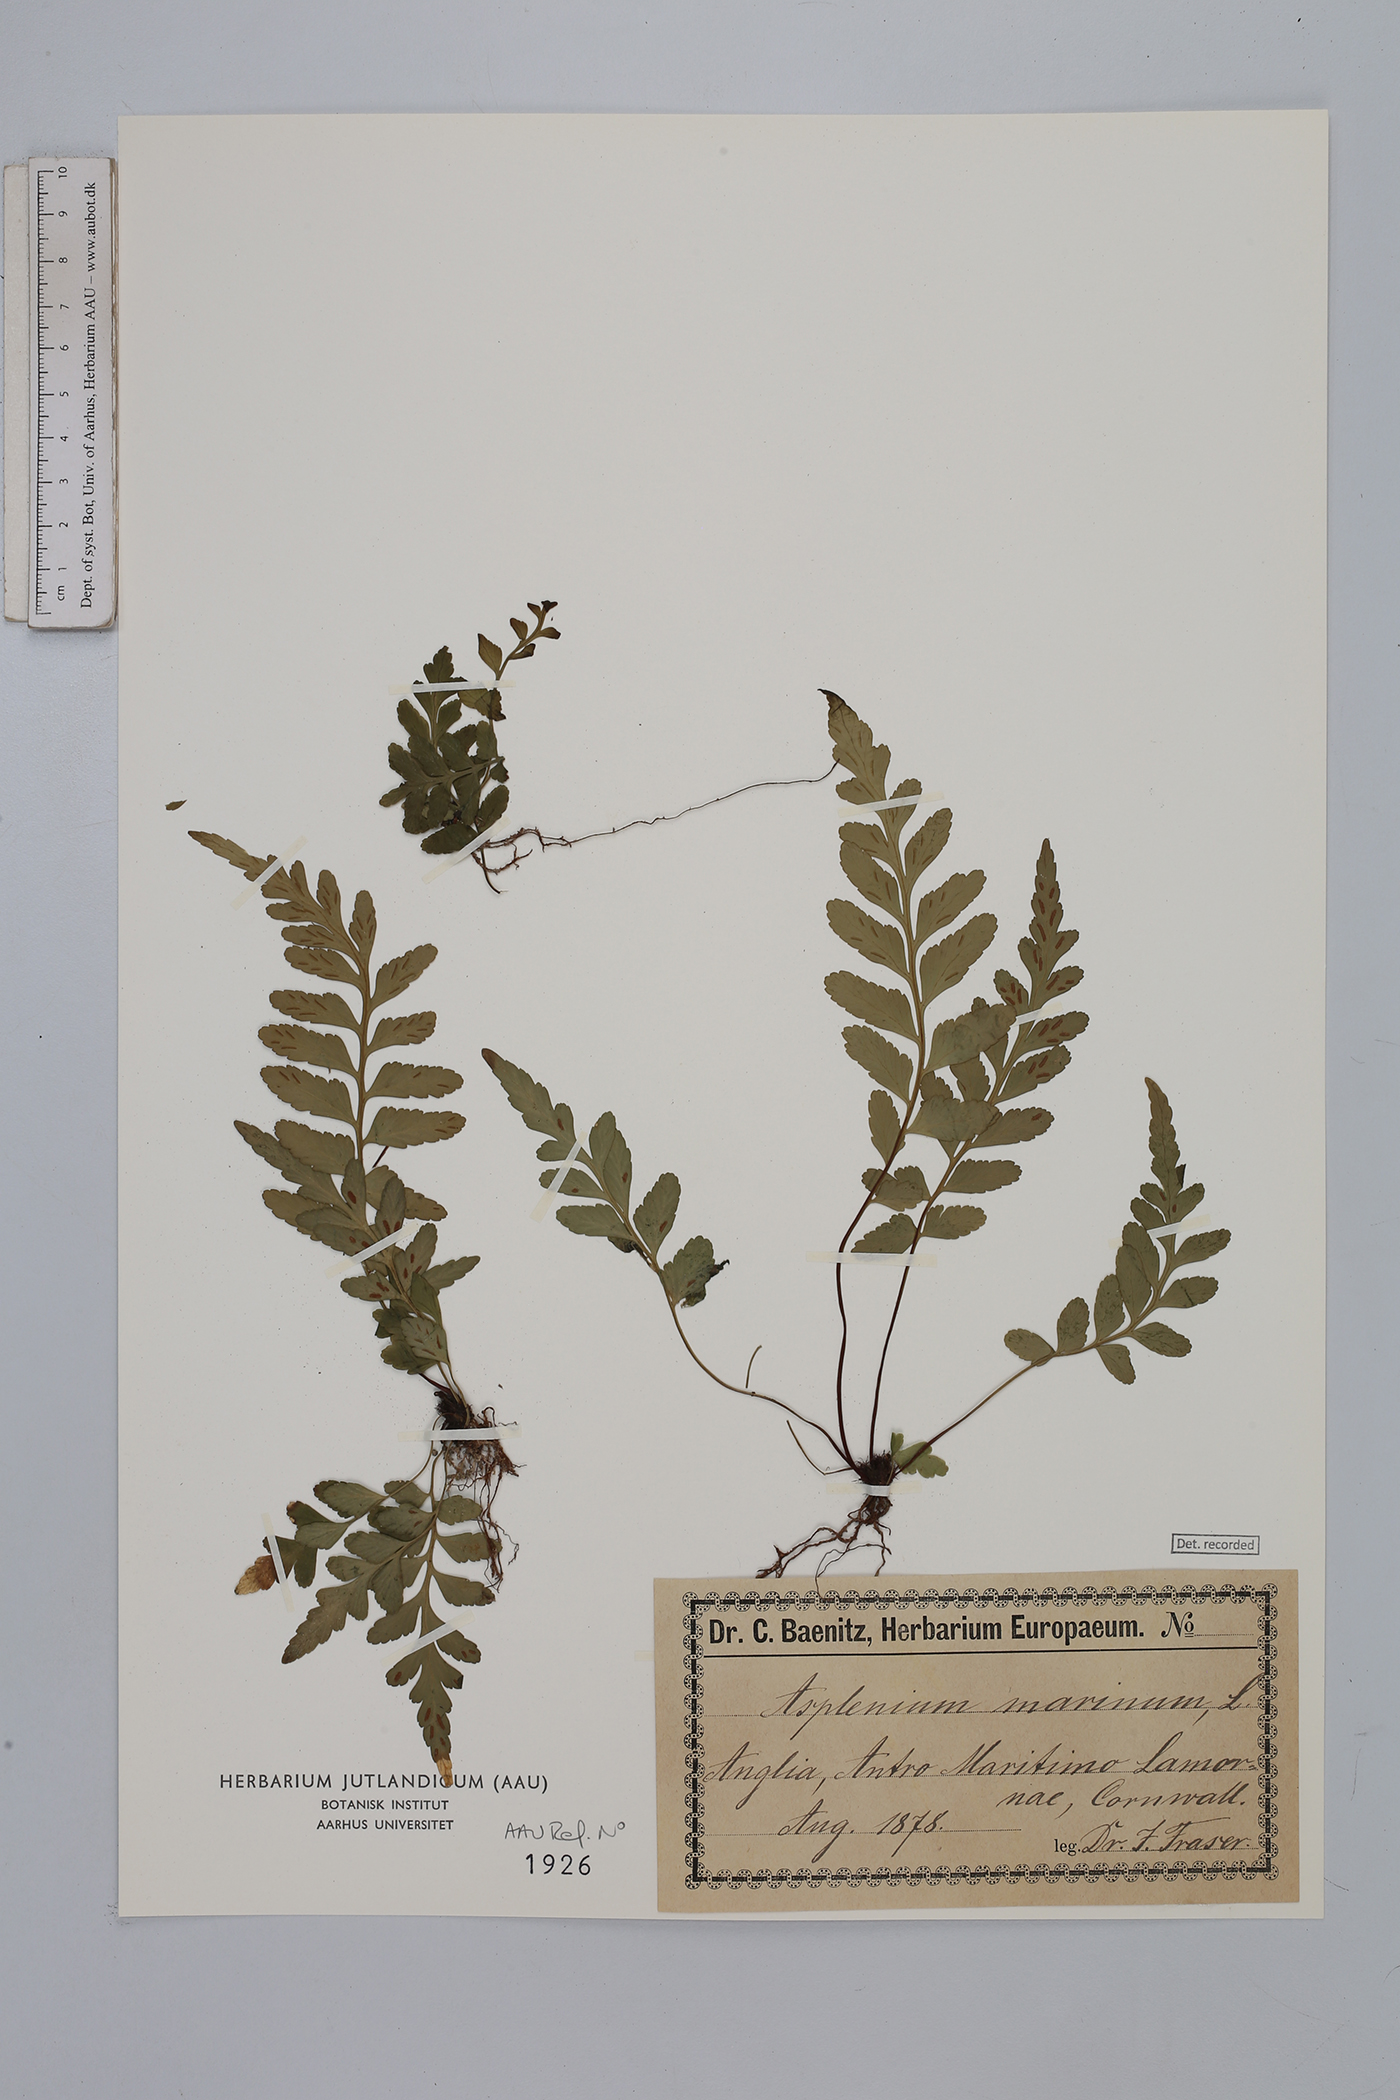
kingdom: Plantae
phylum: Tracheophyta
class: Polypodiopsida
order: Polypodiales
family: Aspleniaceae
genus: Asplenium
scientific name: Asplenium marinum
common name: Sea spleenwort
